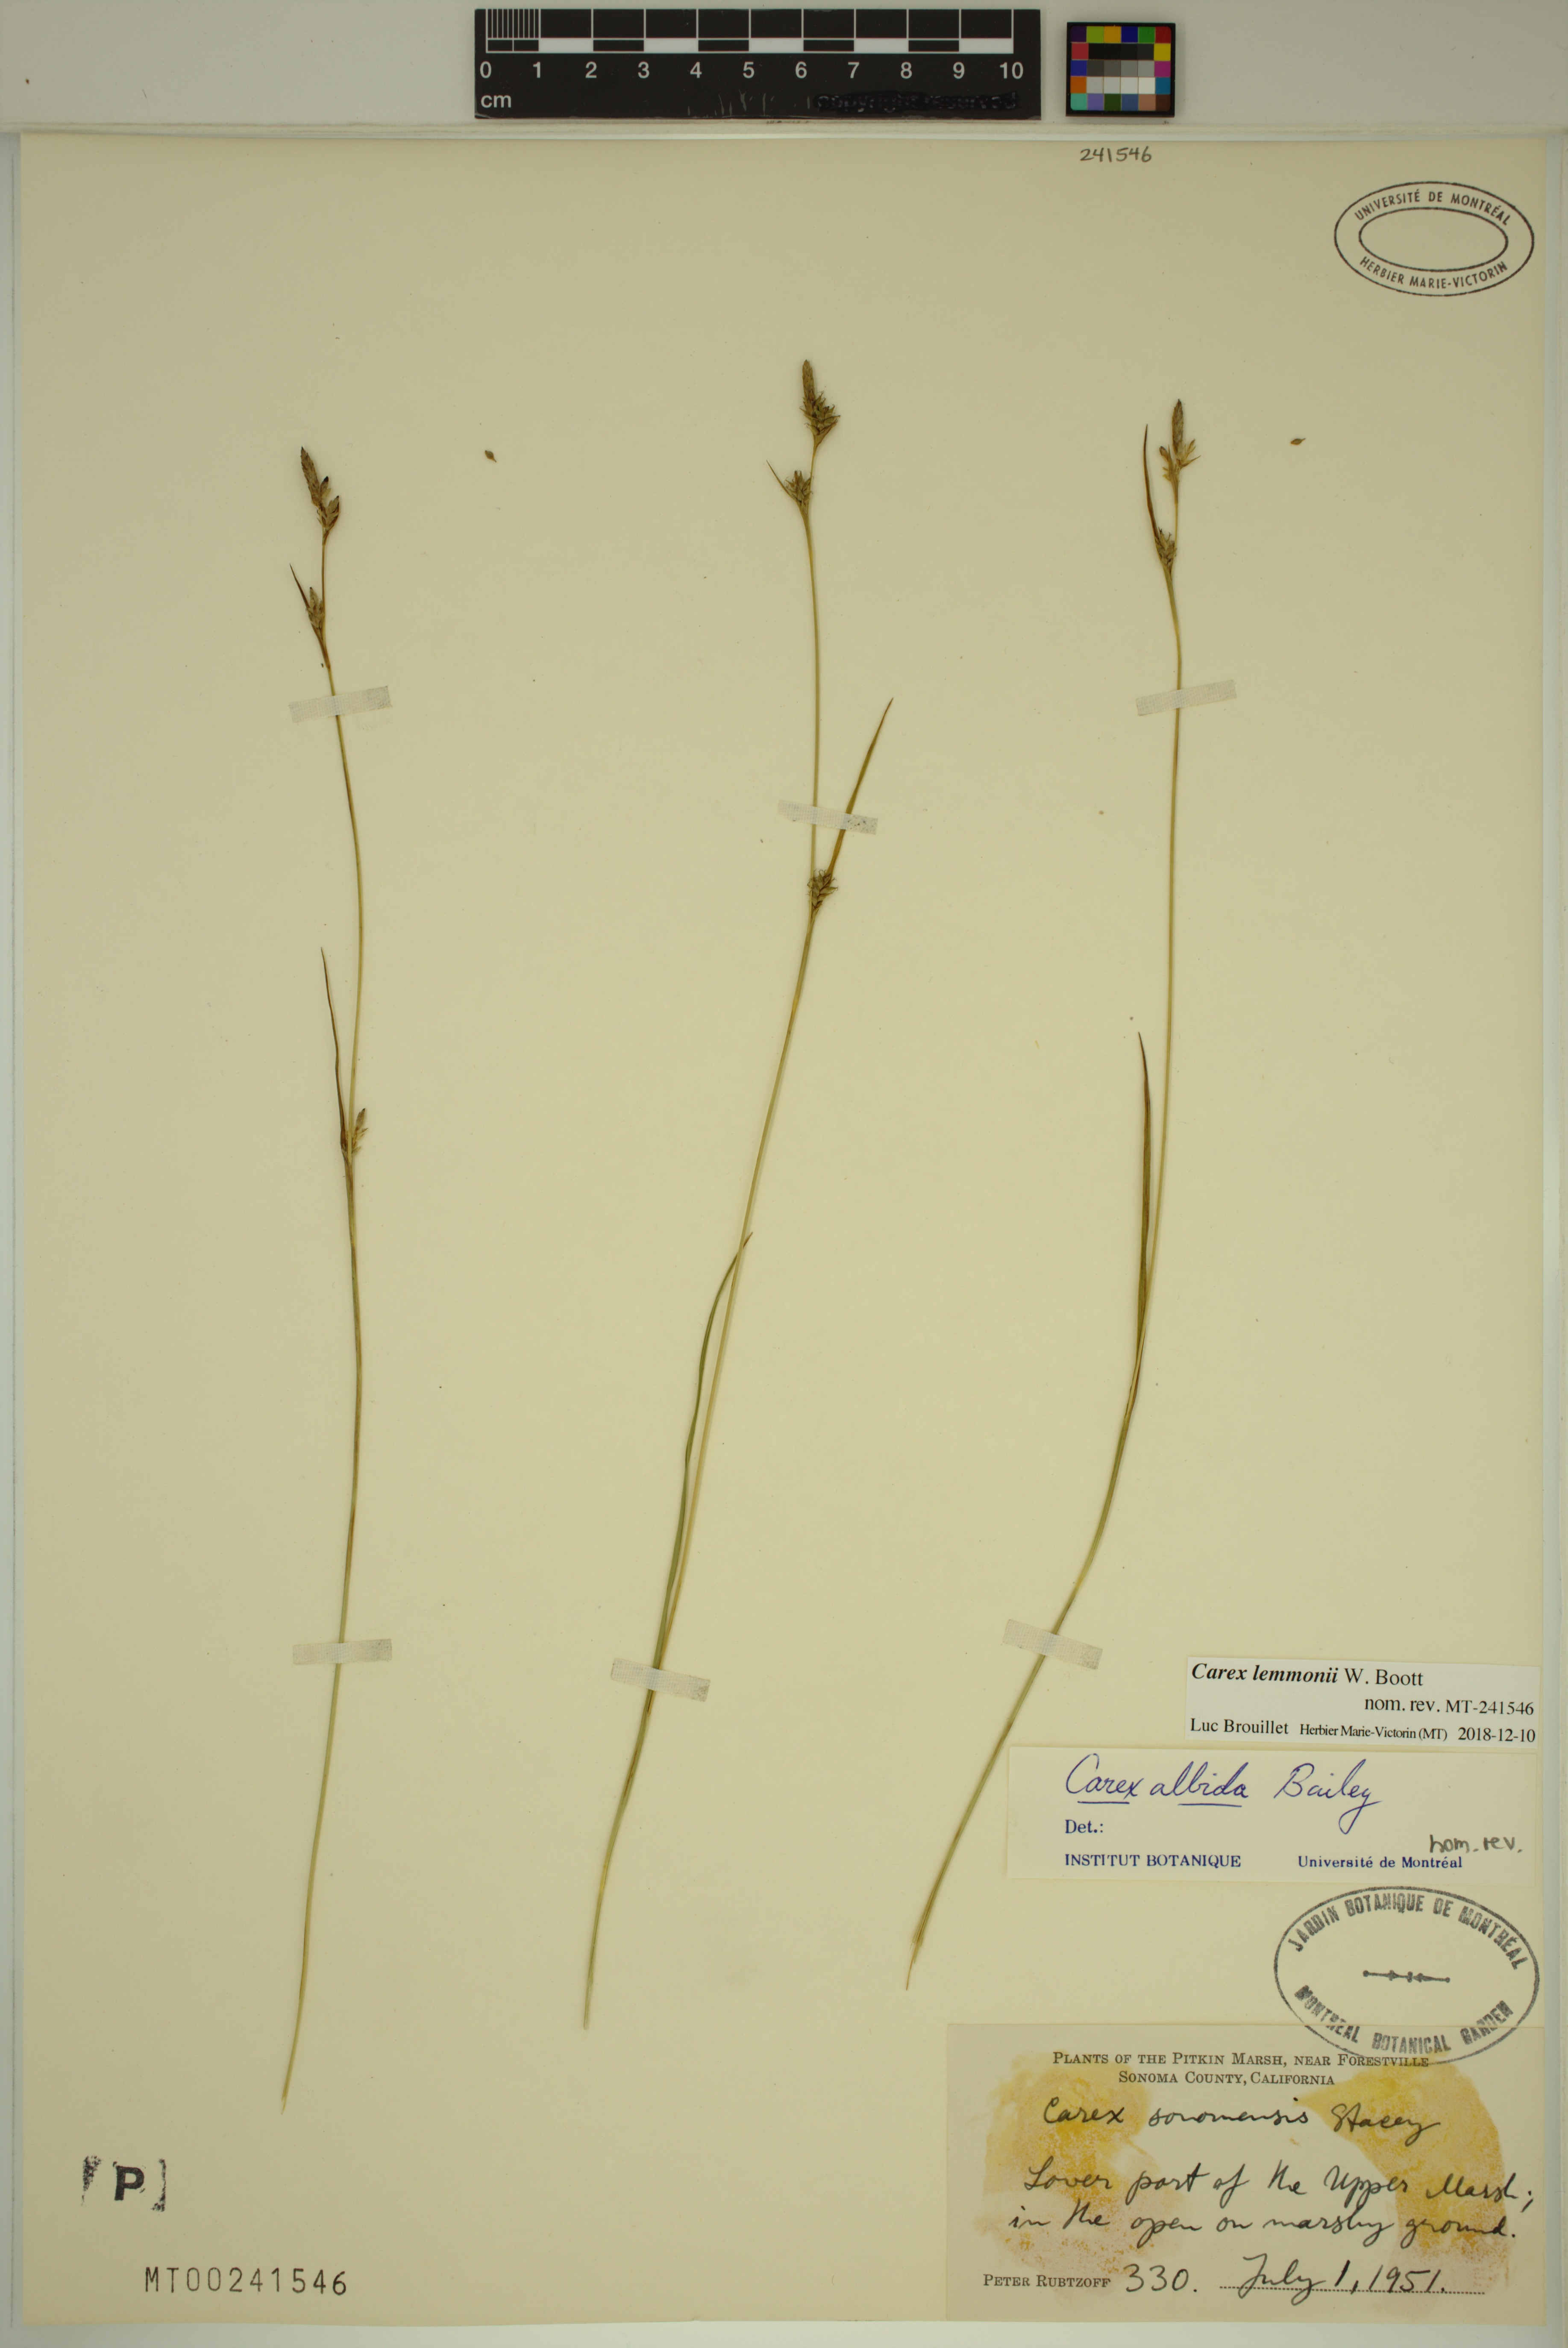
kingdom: Plantae
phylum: Tracheophyta
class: Liliopsida
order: Poales
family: Cyperaceae
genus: Carex
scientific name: Carex lemmonii
